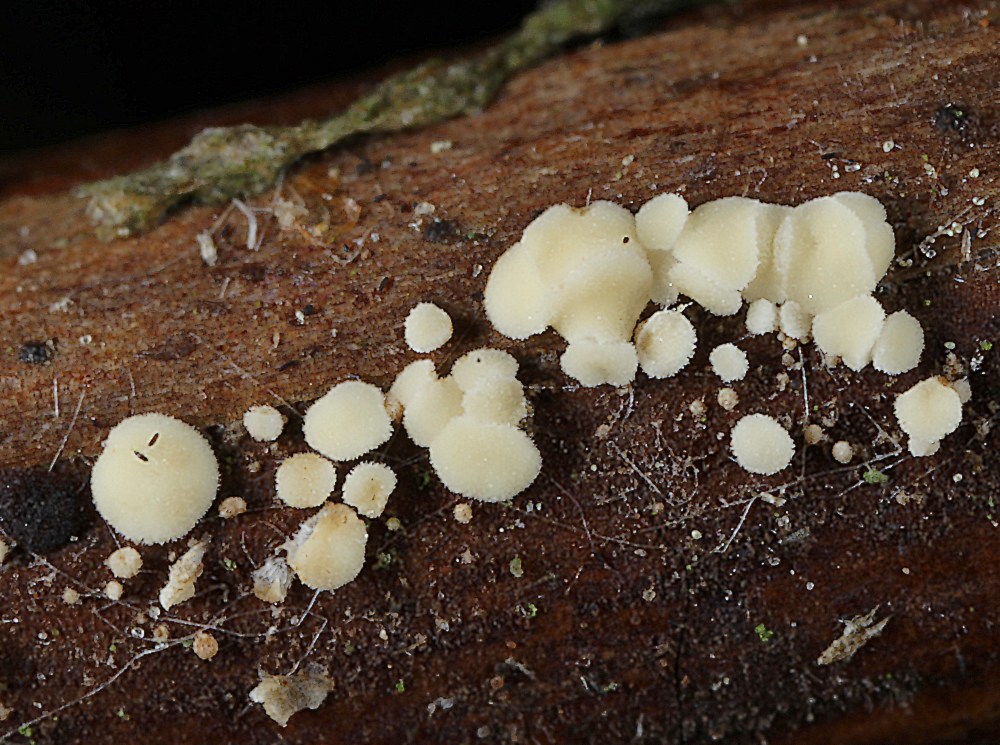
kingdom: Fungi
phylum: Ascomycota
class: Leotiomycetes
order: Helotiales
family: Hyaloscyphaceae
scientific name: Hyaloscyphaceae
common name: frynseskivefamilien
